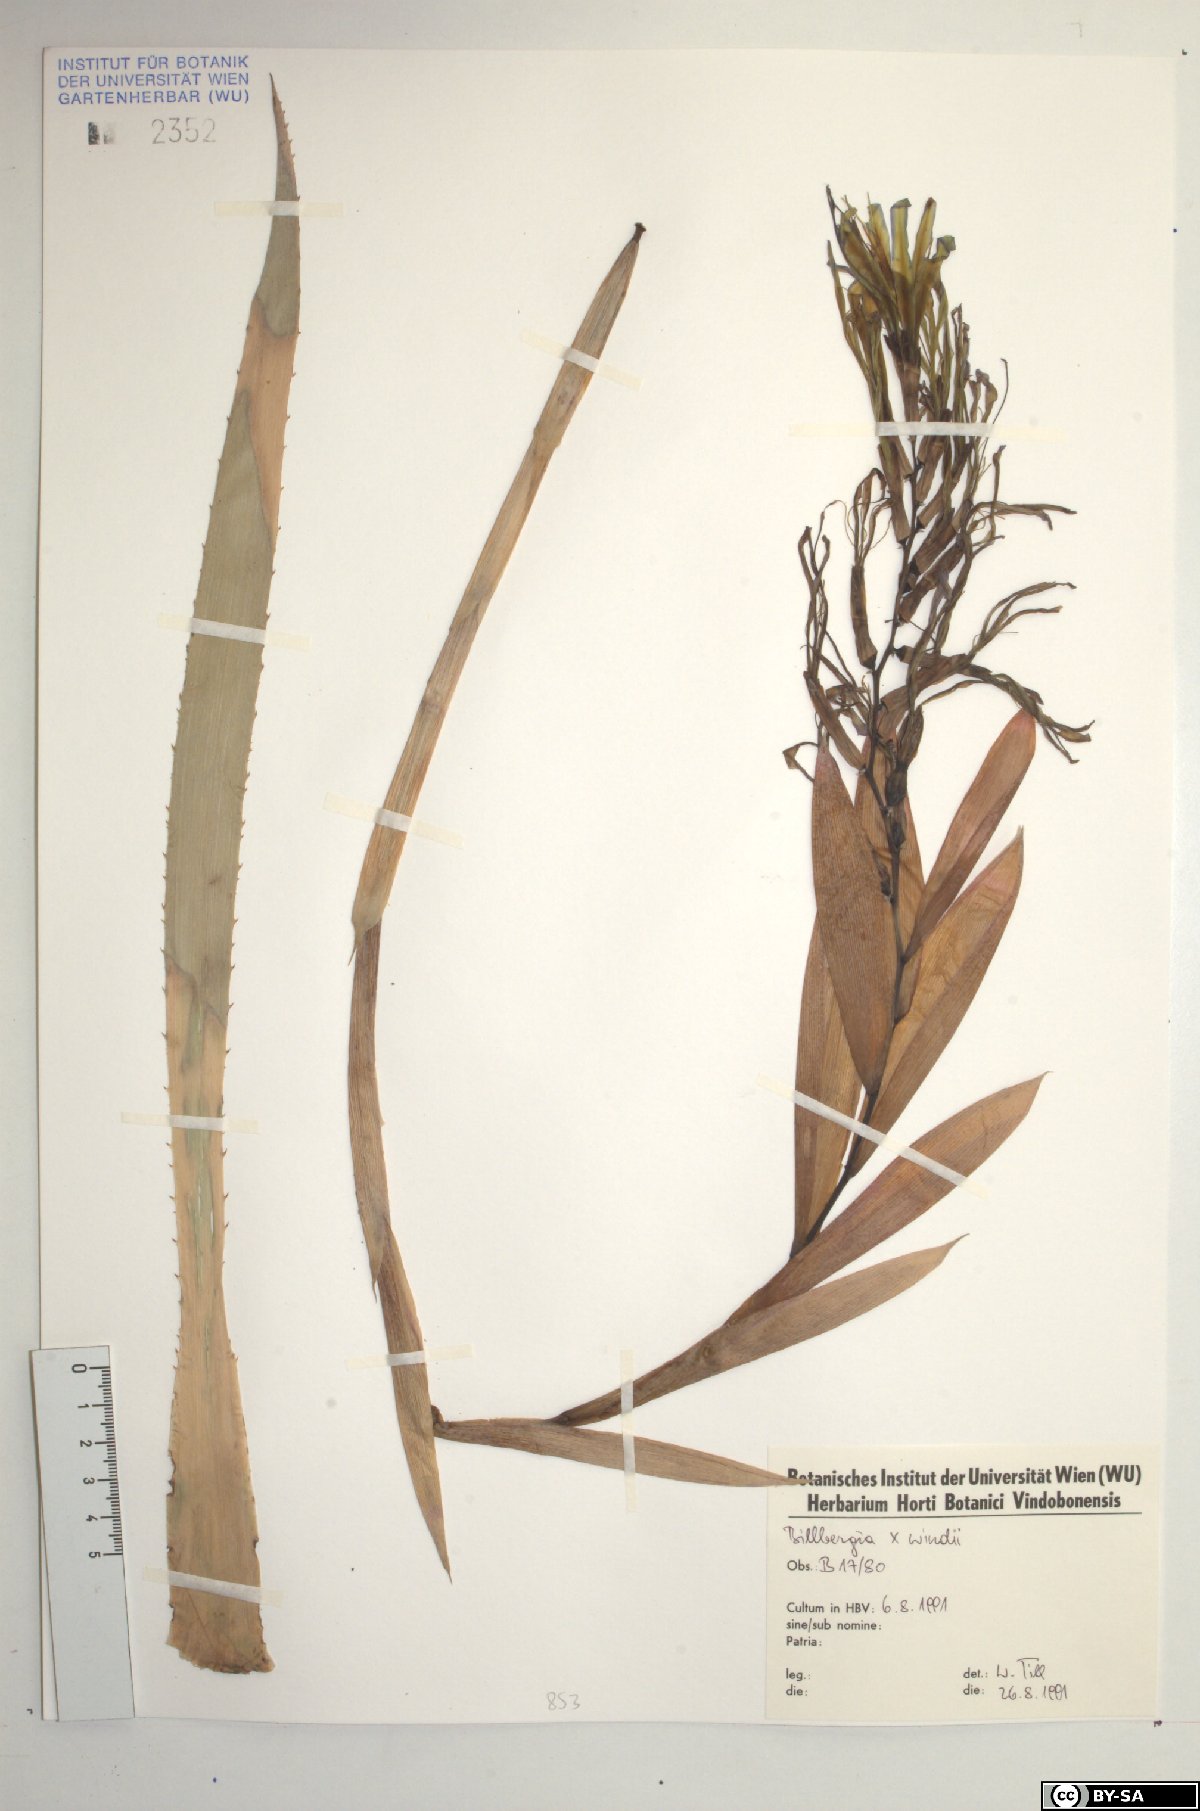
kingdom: Plantae
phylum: Tracheophyta
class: Liliopsida
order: Poales
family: Bromeliaceae
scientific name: Bromeliaceae
